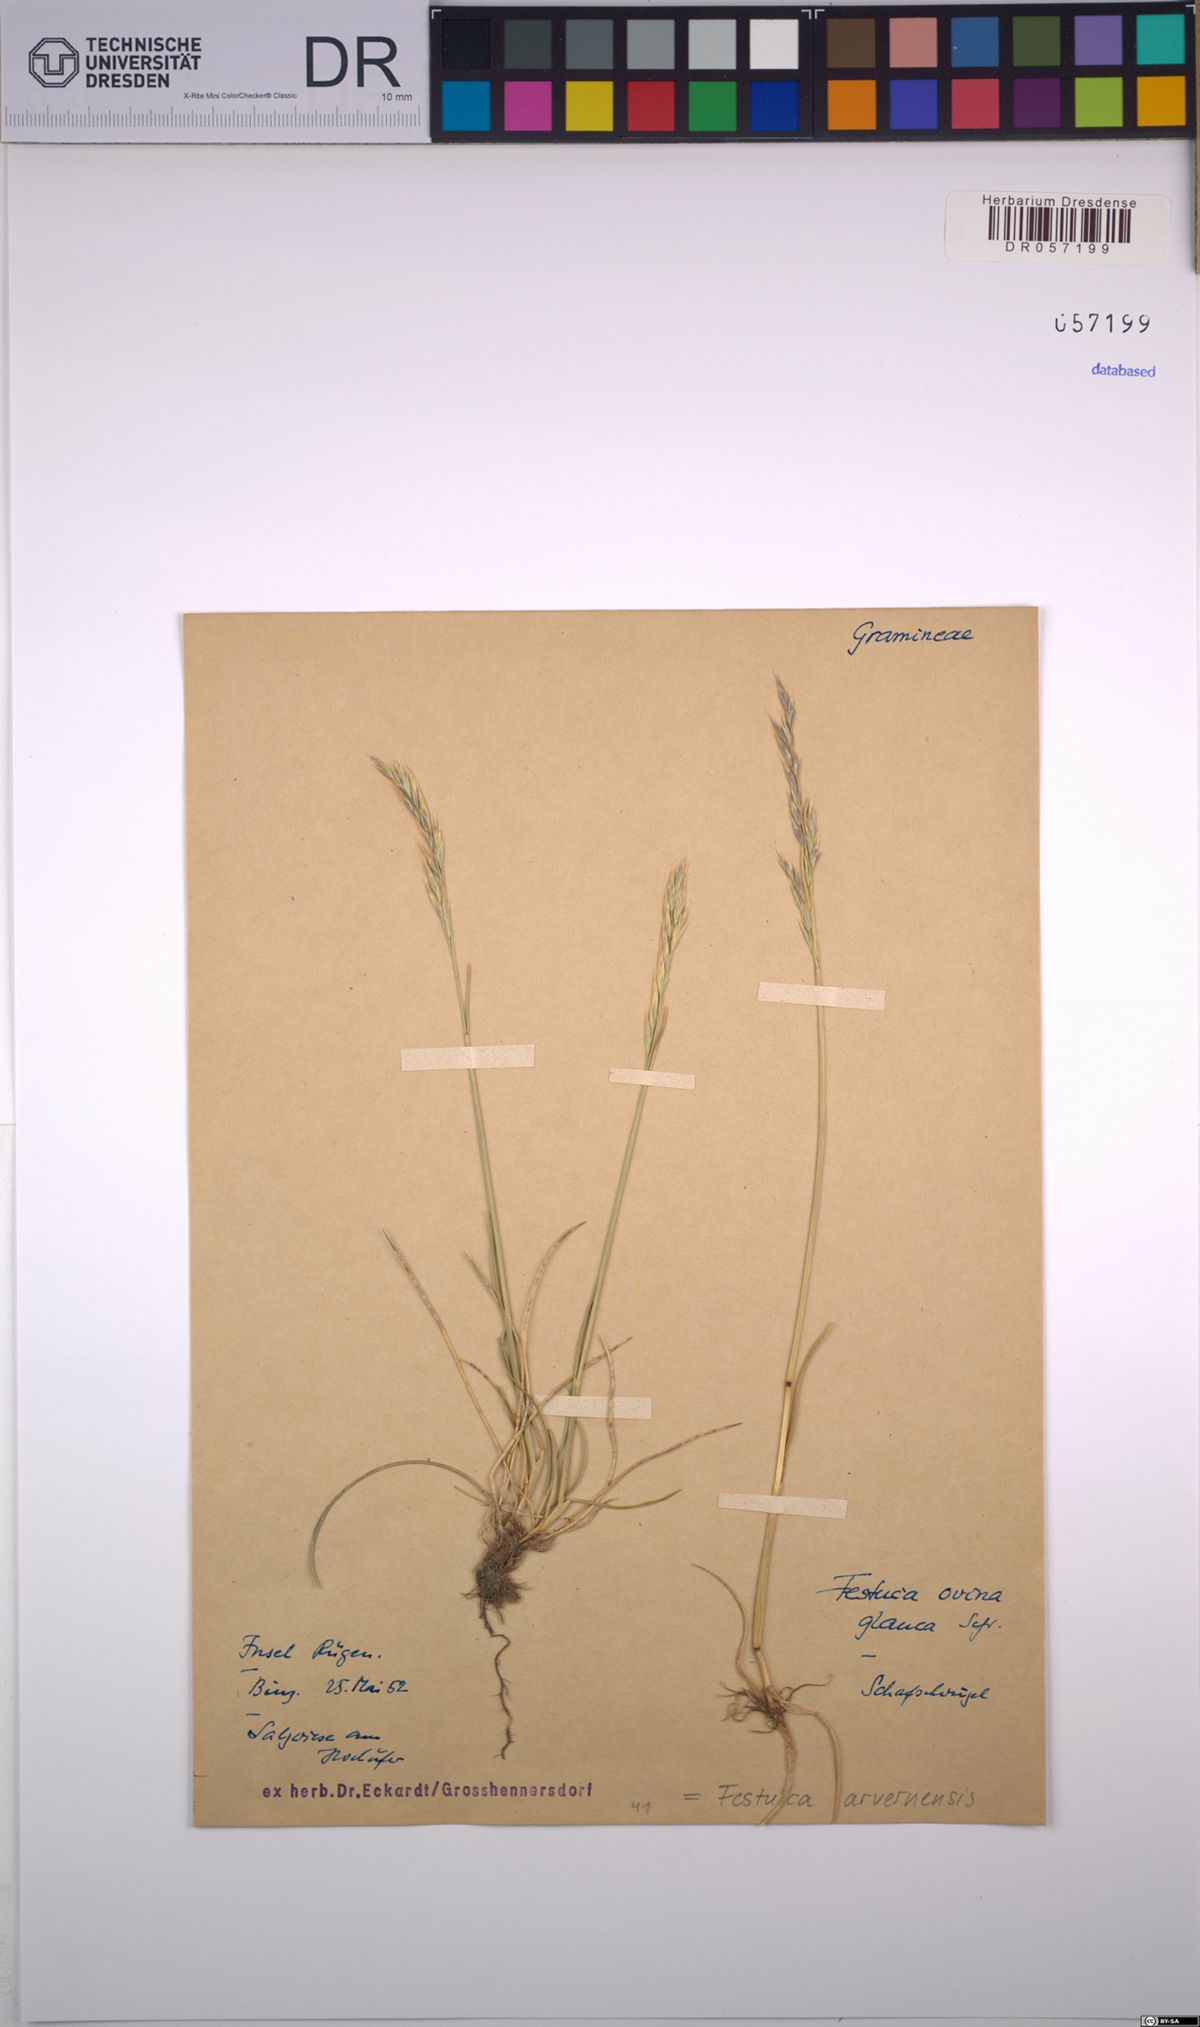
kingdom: Plantae
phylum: Tracheophyta
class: Liliopsida
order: Poales
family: Poaceae
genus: Festuca
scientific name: Festuca arvernensis
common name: Field fescue
